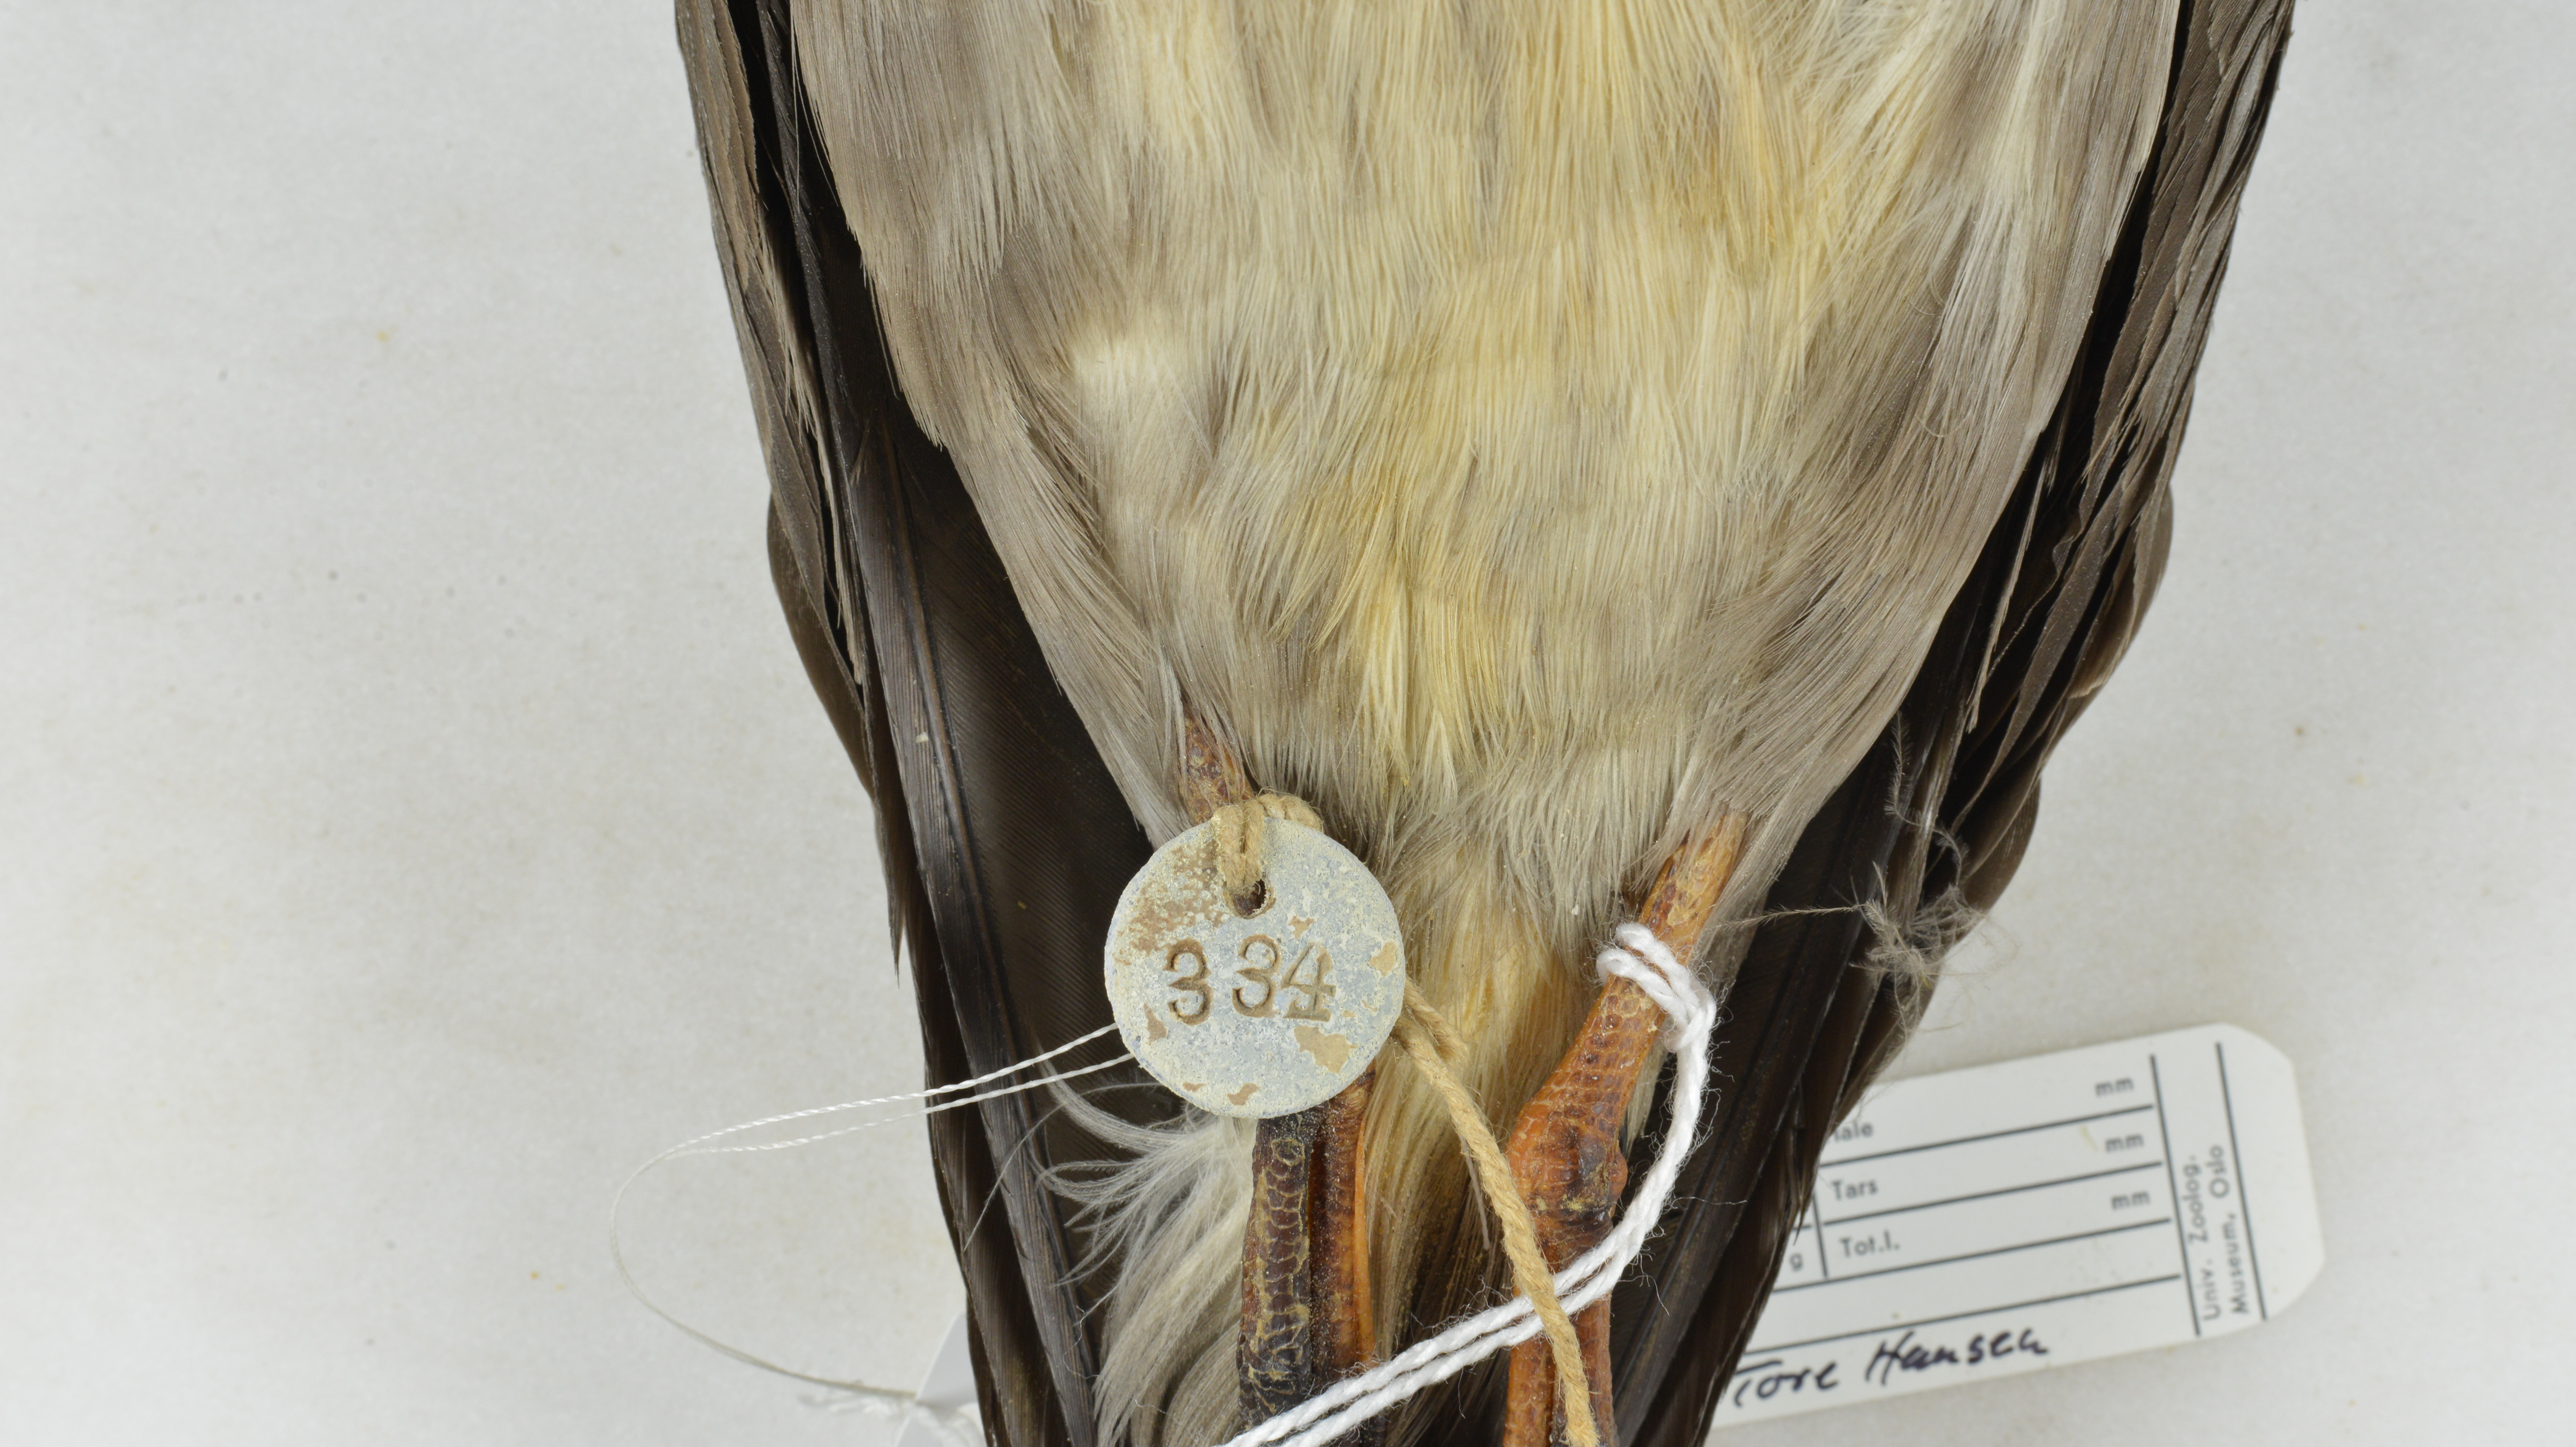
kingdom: Animalia
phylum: Chordata
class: Aves
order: Procellariiformes
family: Procellariidae
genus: Pterodroma
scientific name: Pterodroma incerta
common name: Atlantic petrel
